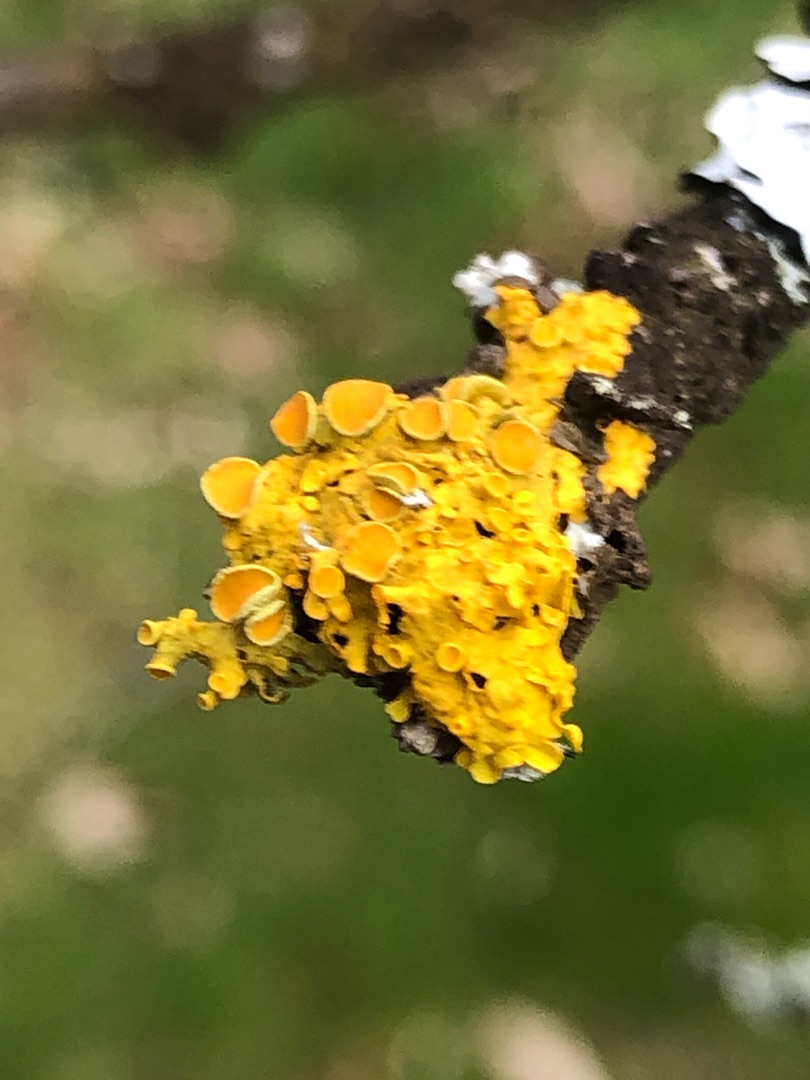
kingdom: Fungi
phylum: Ascomycota
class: Lecanoromycetes
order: Teloschistales
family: Teloschistaceae
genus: Xanthoria
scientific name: Xanthoria parietina
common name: Almindelig væggelav
